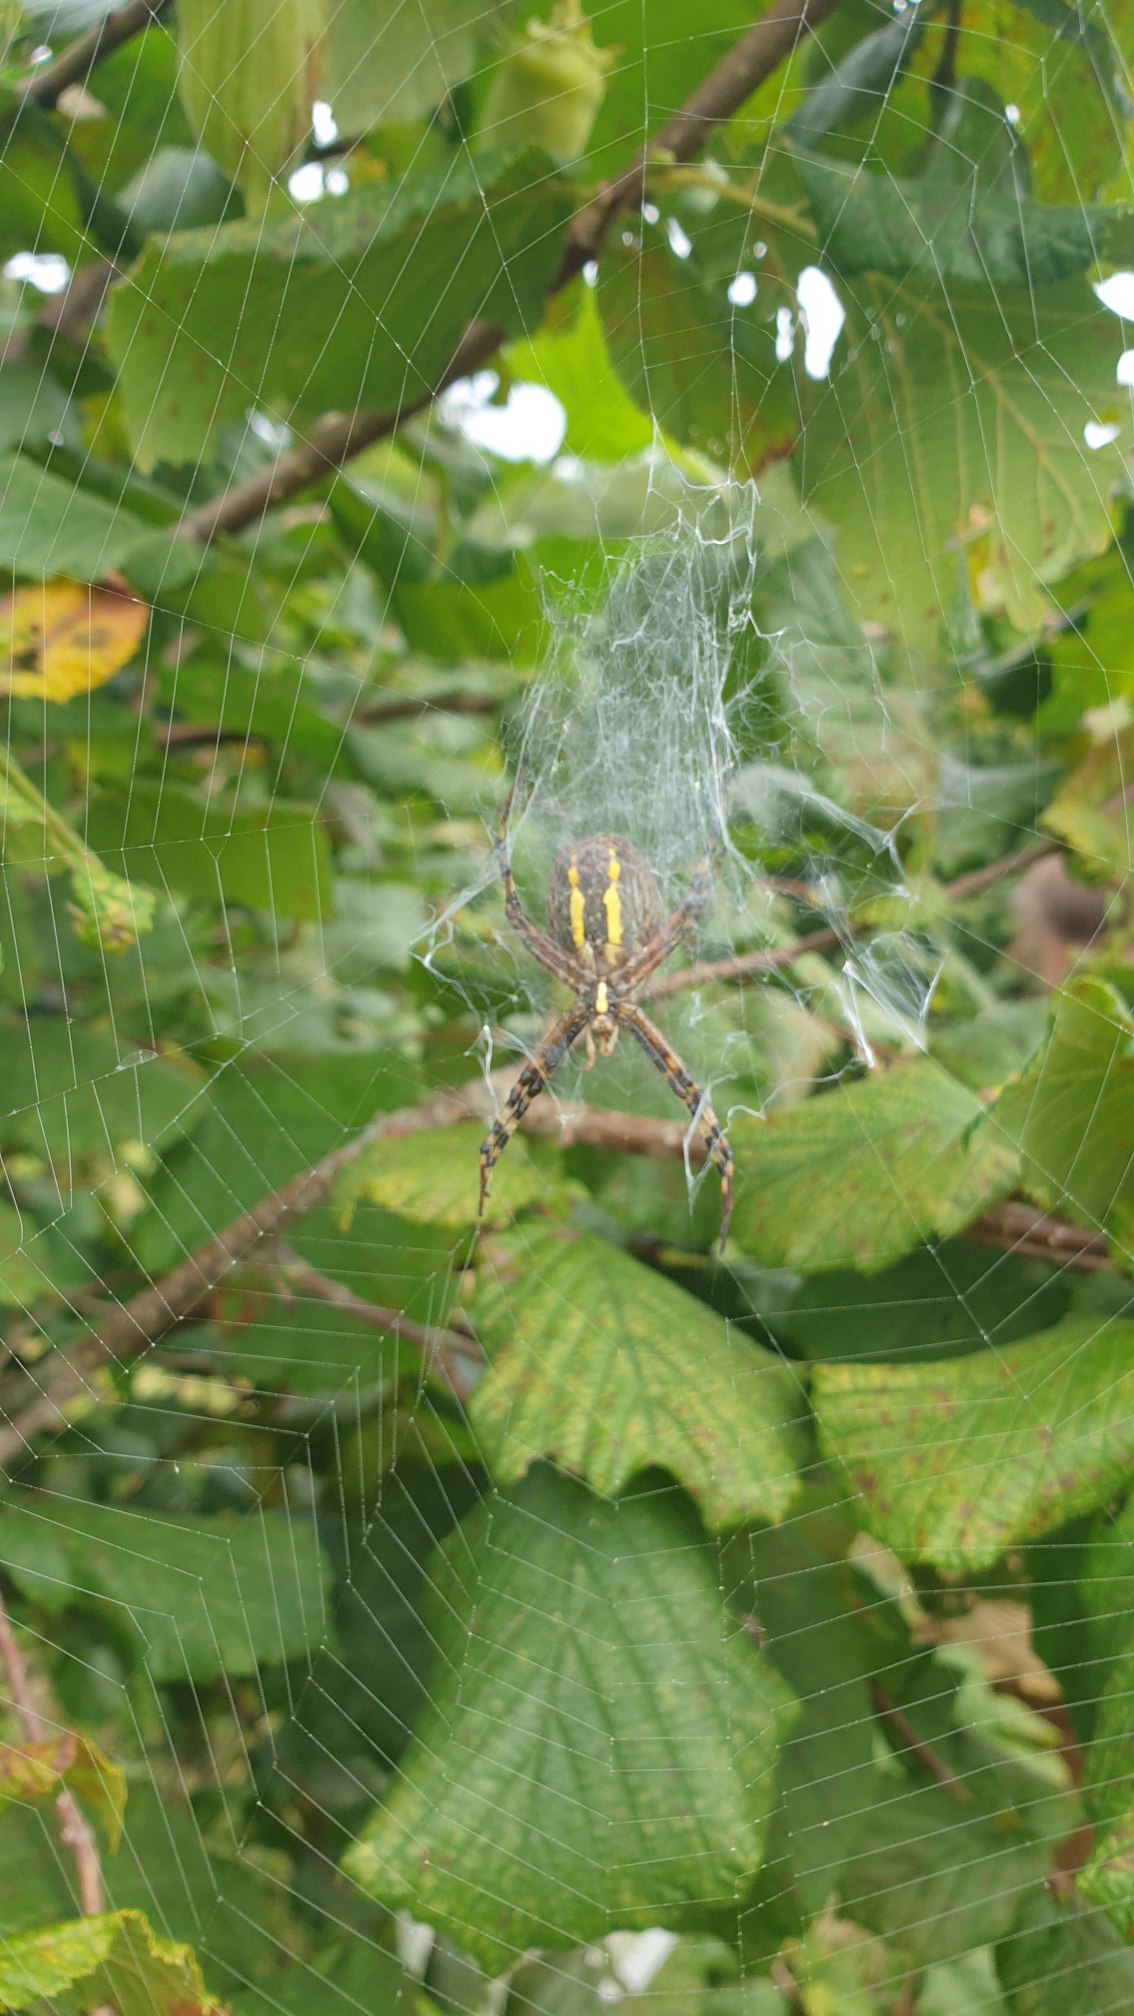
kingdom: Animalia
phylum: Arthropoda
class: Arachnida
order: Araneae
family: Araneidae
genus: Argiope
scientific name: Argiope bruennichi
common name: Hvepseedderkop
